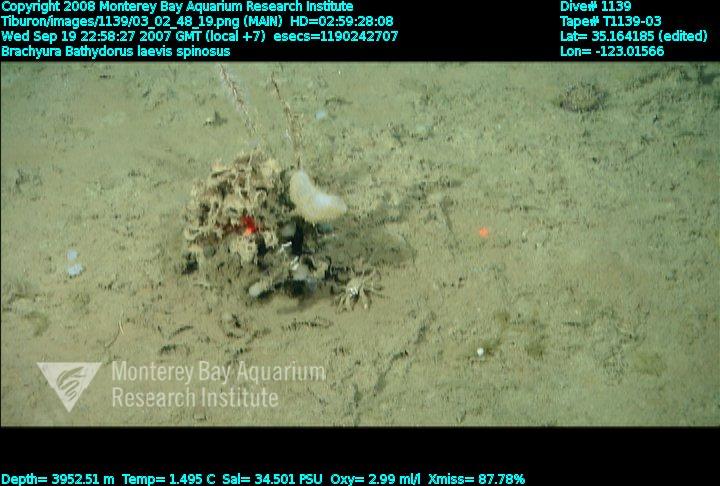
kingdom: Animalia
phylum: Porifera
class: Hexactinellida
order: Lyssacinosida
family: Rossellidae
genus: Bathydorus
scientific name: Bathydorus spinosus
